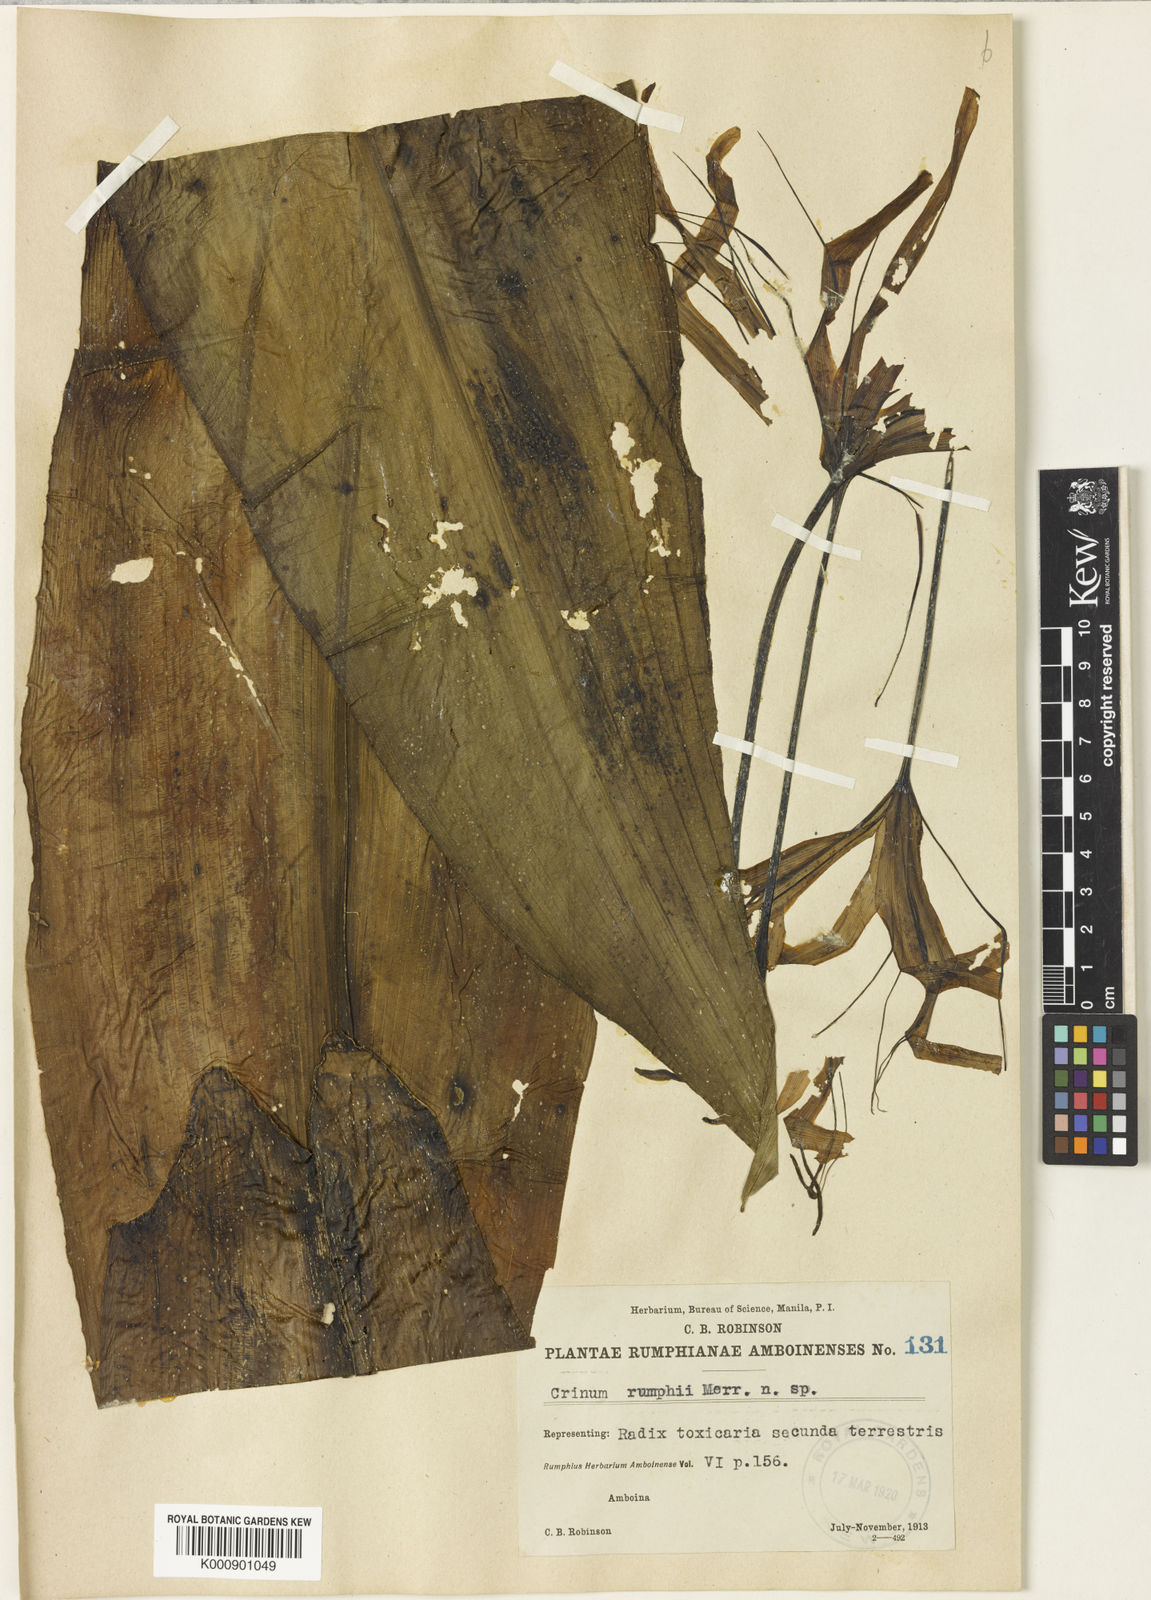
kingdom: Plantae
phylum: Tracheophyta
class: Liliopsida
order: Asparagales
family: Amaryllidaceae
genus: Crinum
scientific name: Crinum asiaticum
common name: Poisonbulb
